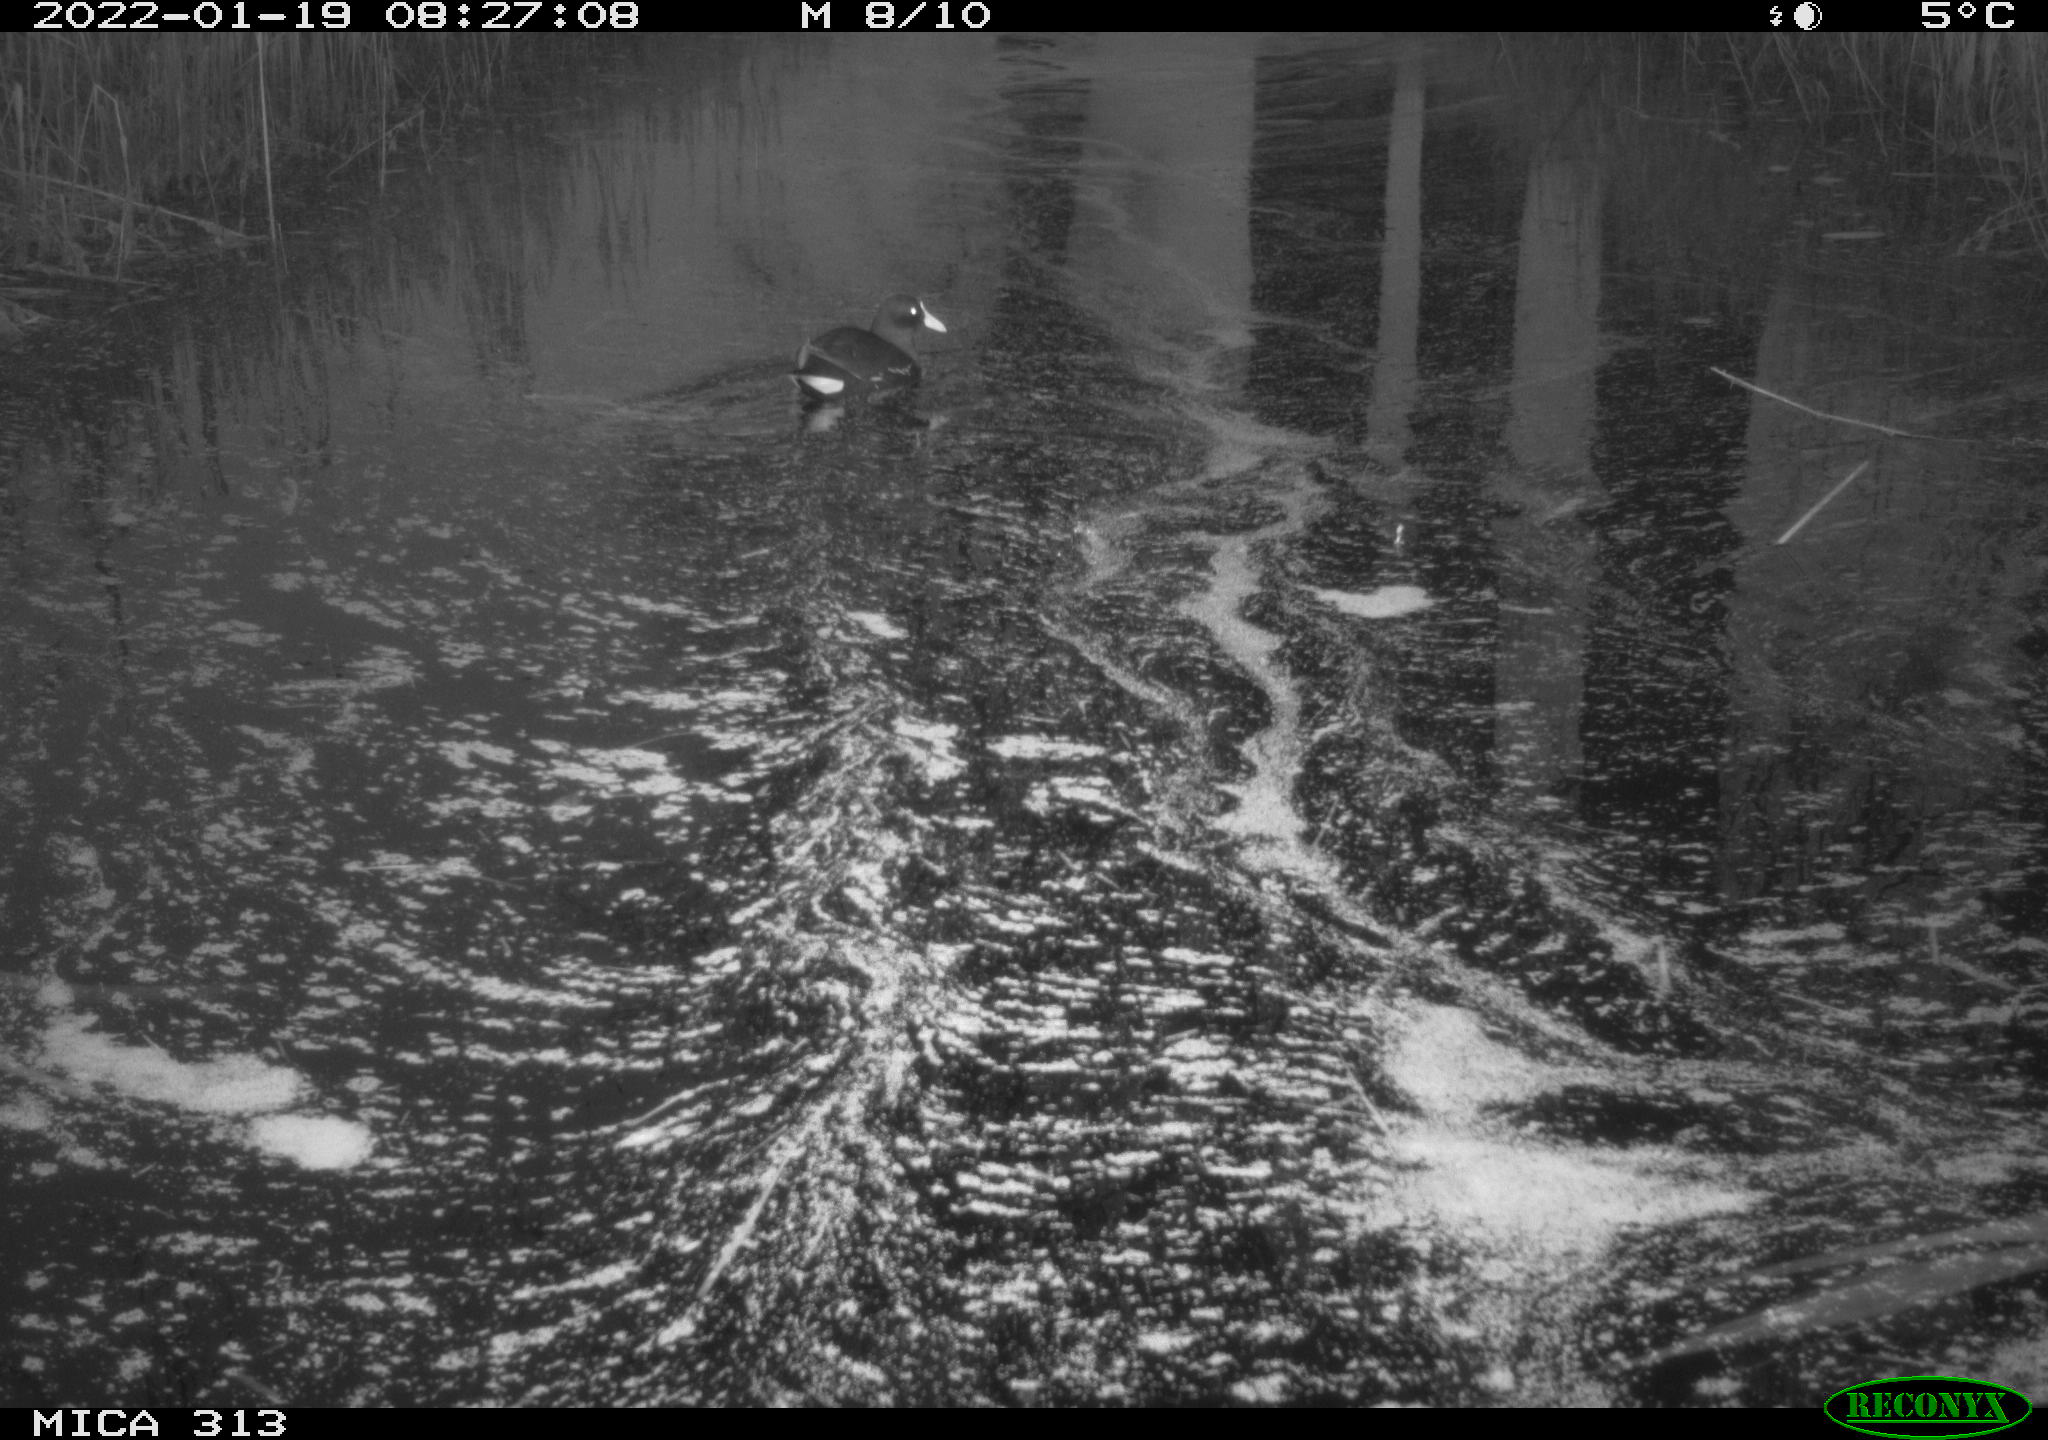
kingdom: Animalia
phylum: Chordata
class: Aves
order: Gruiformes
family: Rallidae
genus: Gallinula
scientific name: Gallinula chloropus
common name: Common moorhen
